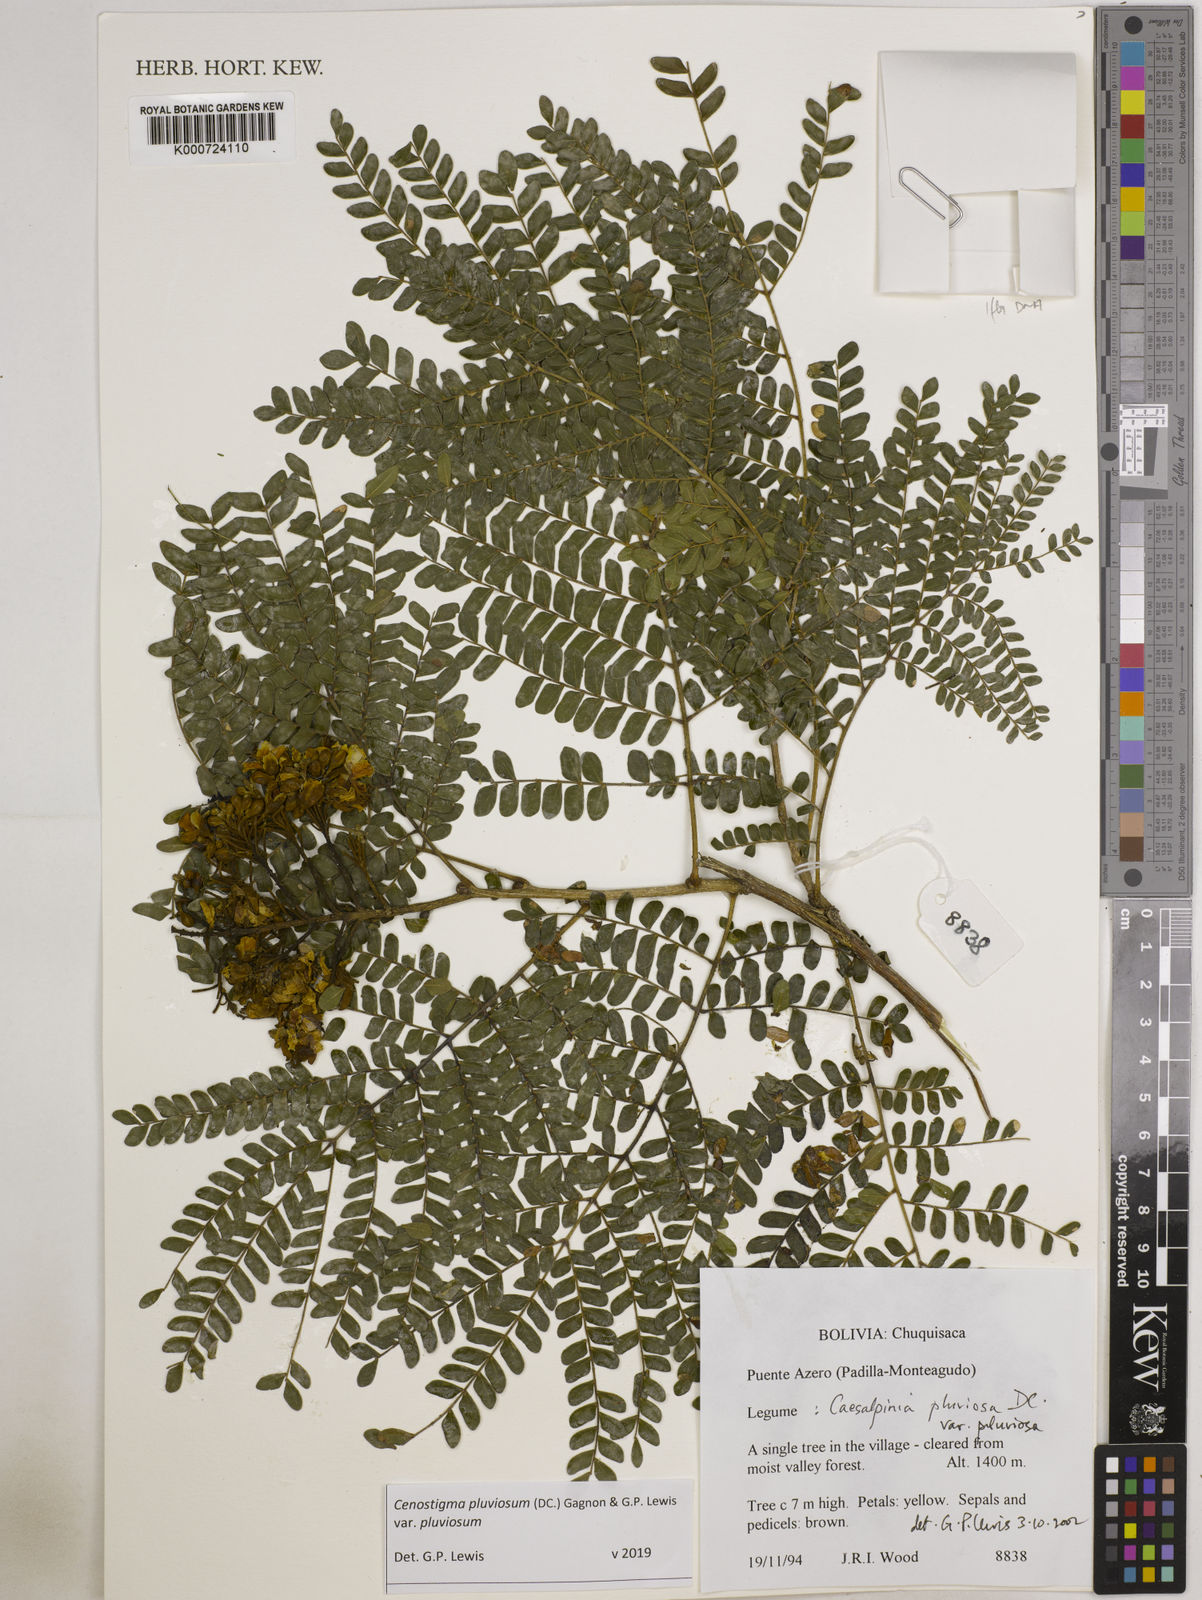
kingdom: Plantae
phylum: Tracheophyta
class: Magnoliopsida
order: Fabales
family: Fabaceae
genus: Cenostigma
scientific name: Cenostigma pluviosum
